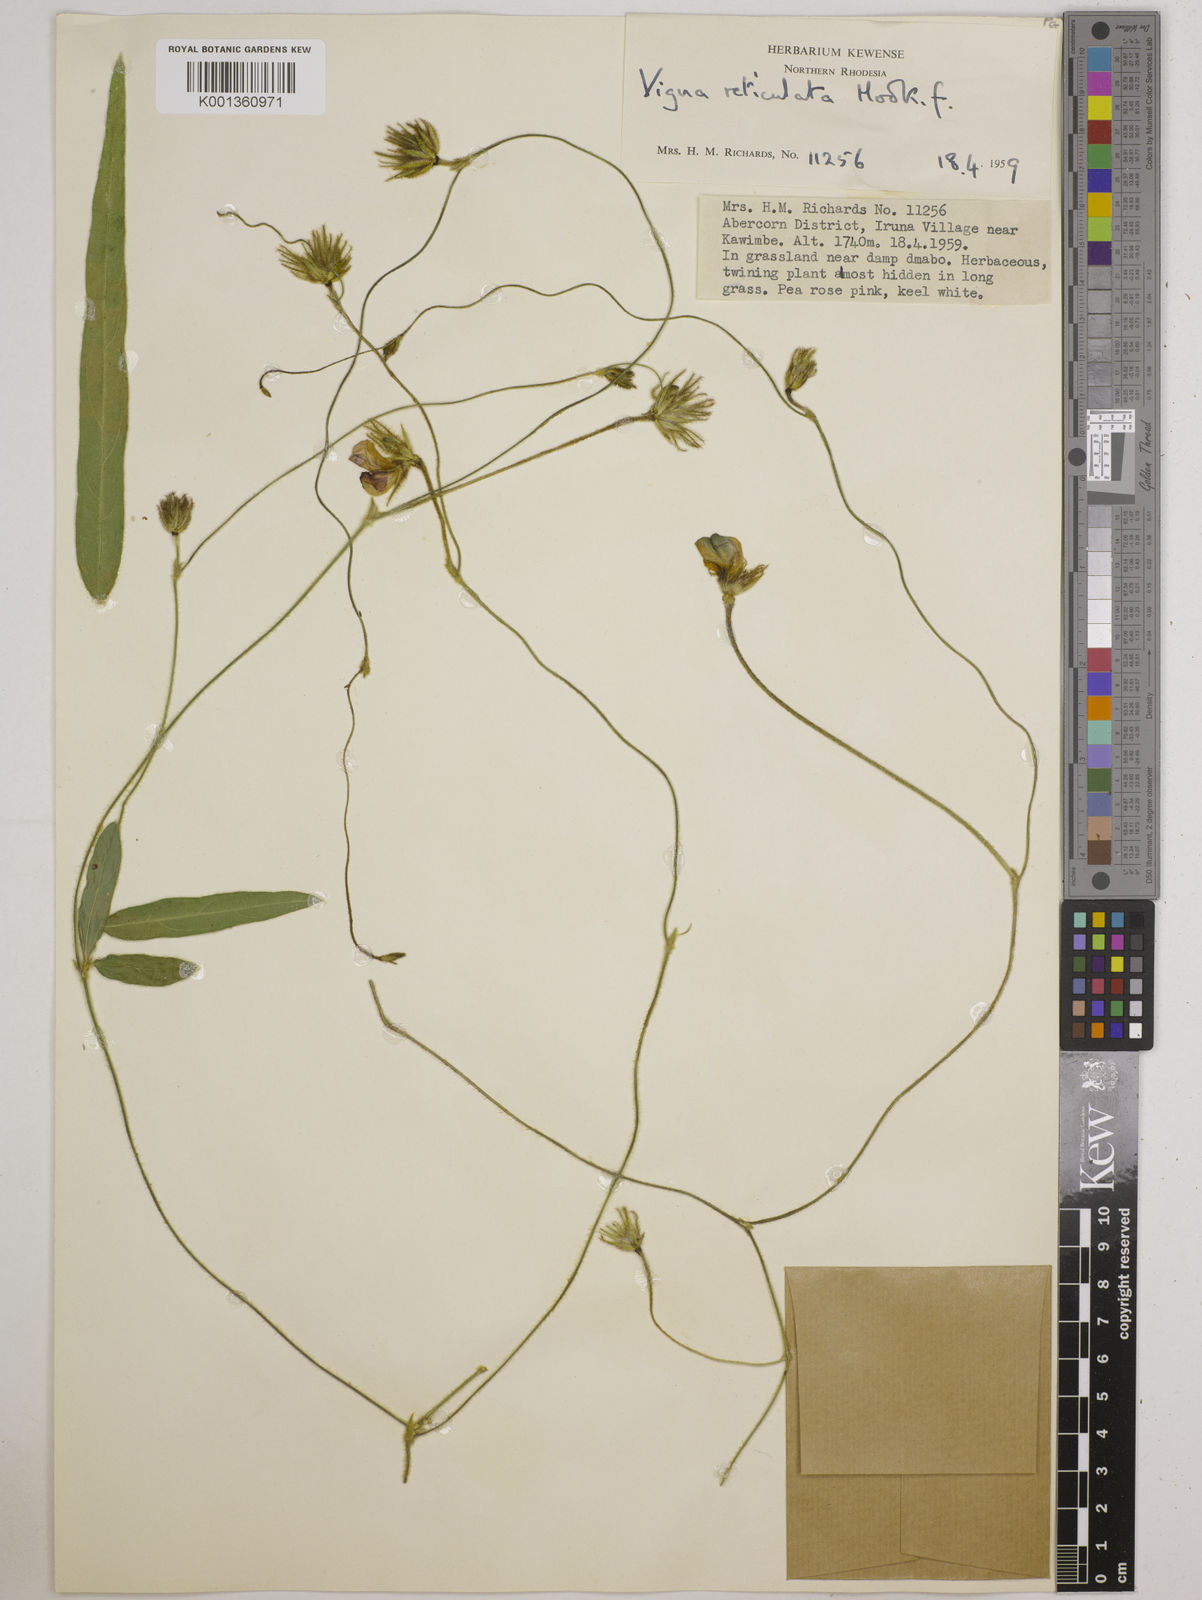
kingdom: Plantae
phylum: Tracheophyta
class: Magnoliopsida
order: Fabales
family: Fabaceae
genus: Vigna
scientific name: Vigna reticulata
